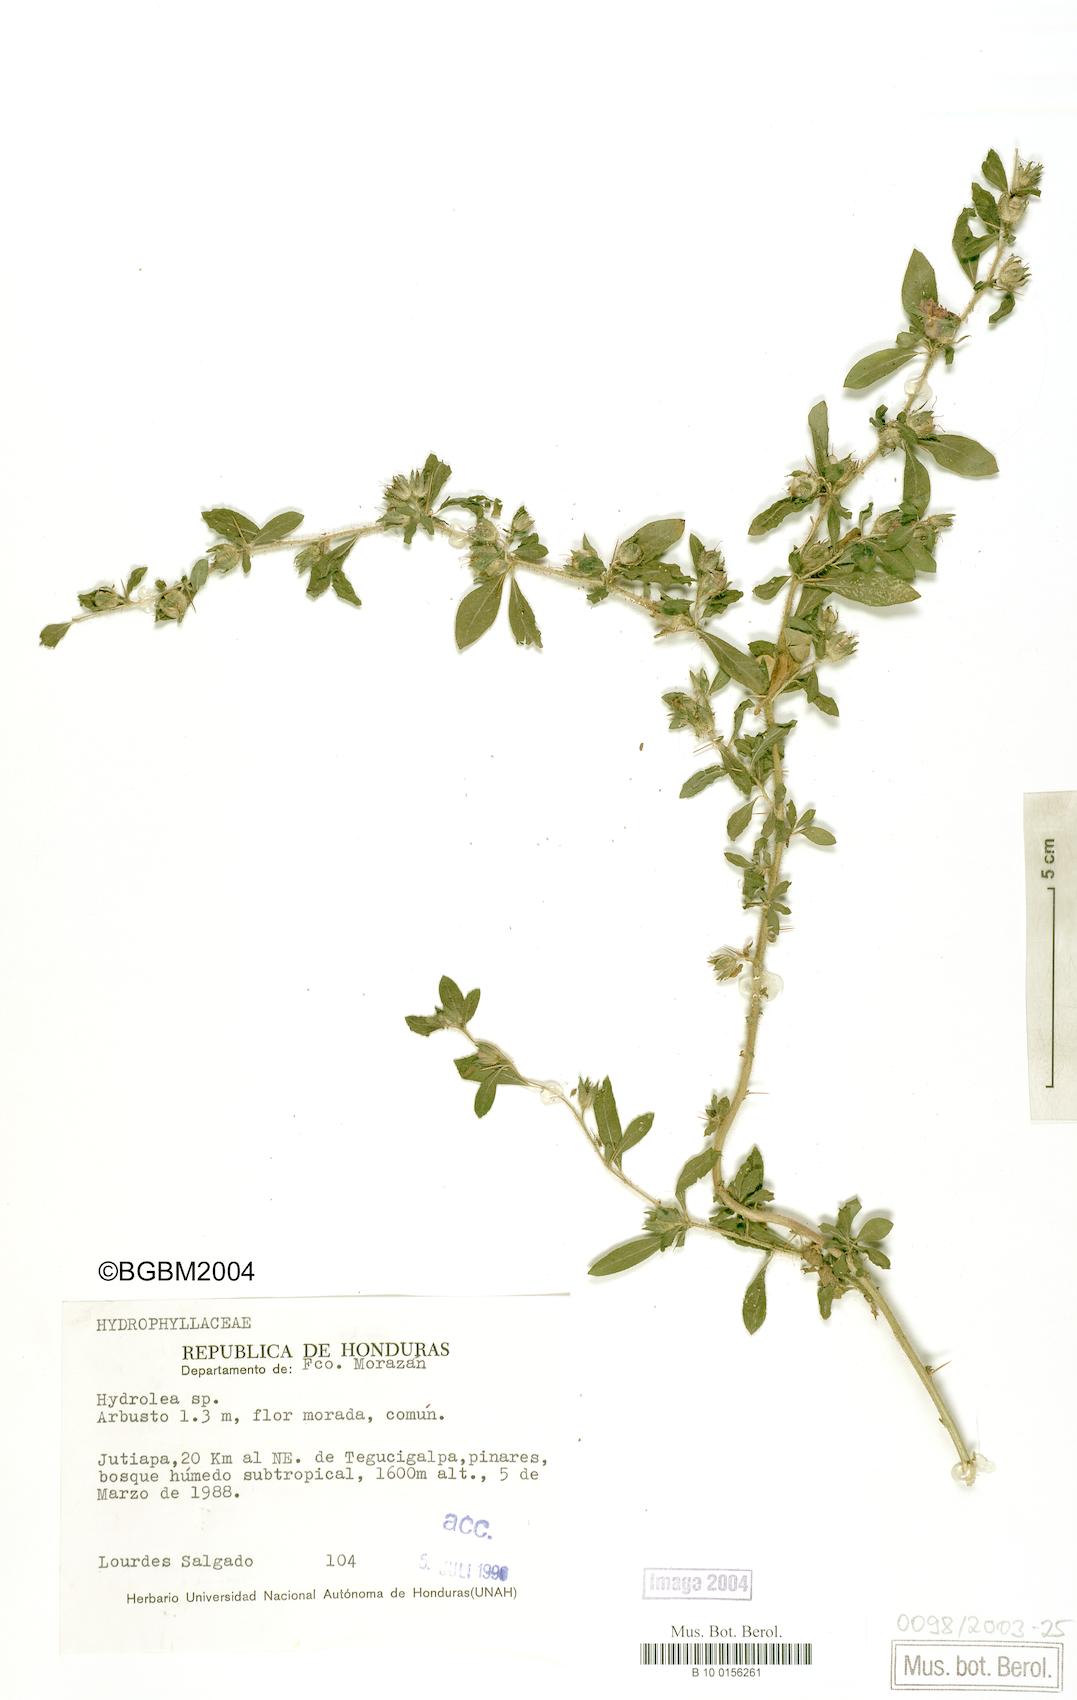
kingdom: Plantae
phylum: Tracheophyta
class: Magnoliopsida
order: Boraginales
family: Hydrophyllaceae
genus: Hydrolea
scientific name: Hydrolea
